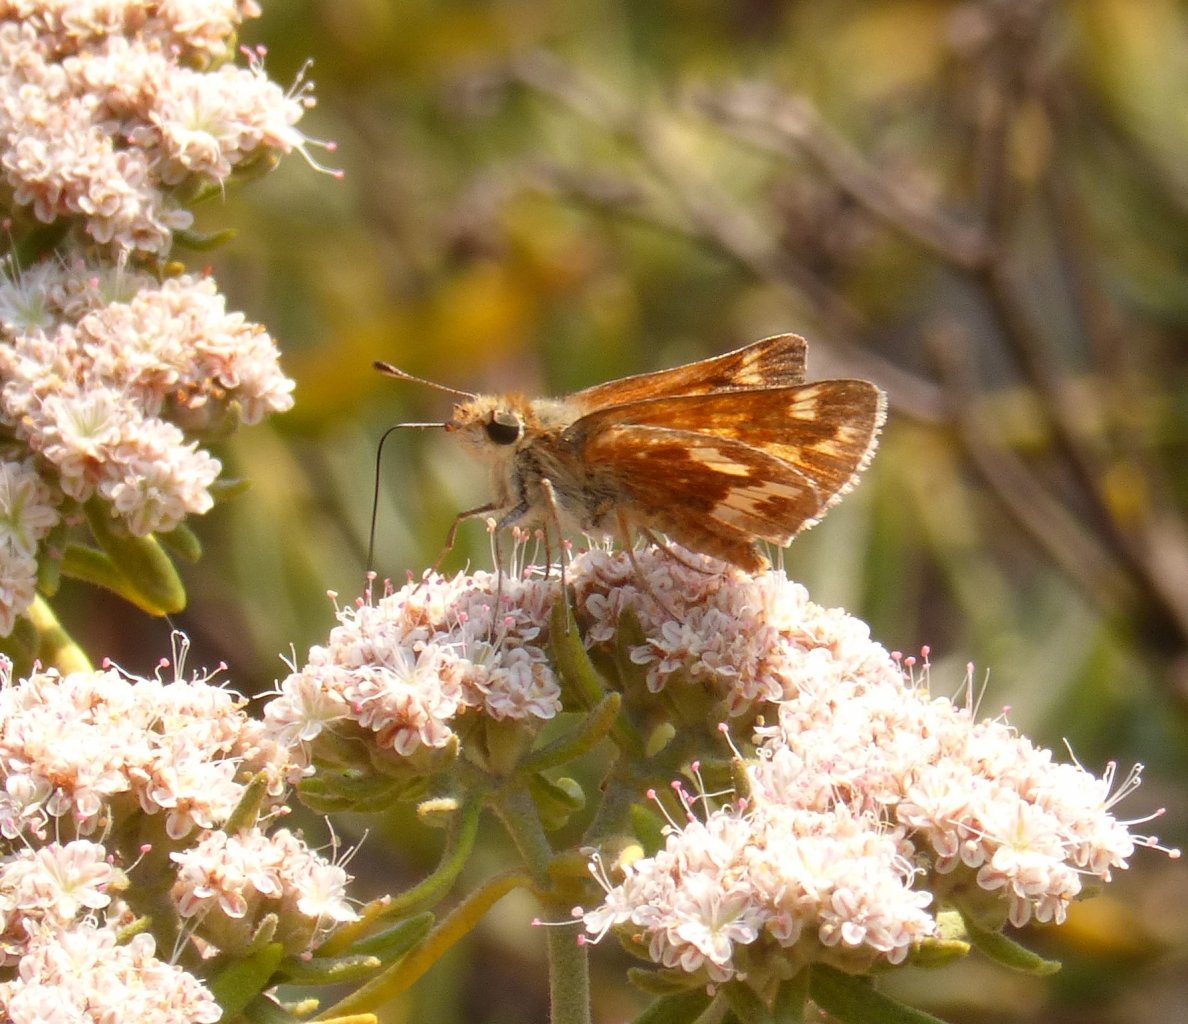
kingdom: Animalia
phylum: Arthropoda
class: Insecta
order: Lepidoptera
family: Hesperiidae
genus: Ochlodes
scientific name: Ochlodes sylvanoides
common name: Woodland Skipper
